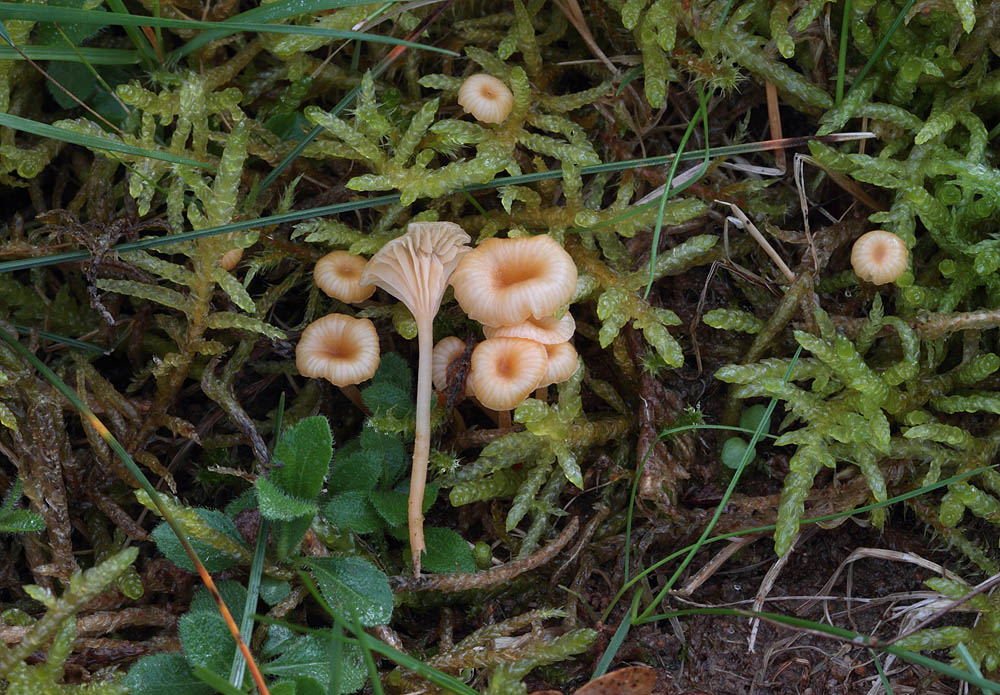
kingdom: Fungi
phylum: Basidiomycota
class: Agaricomycetes
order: Hymenochaetales
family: Rickenellaceae
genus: Rickenella
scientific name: Rickenella fibula
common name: orange mosnavlehat
